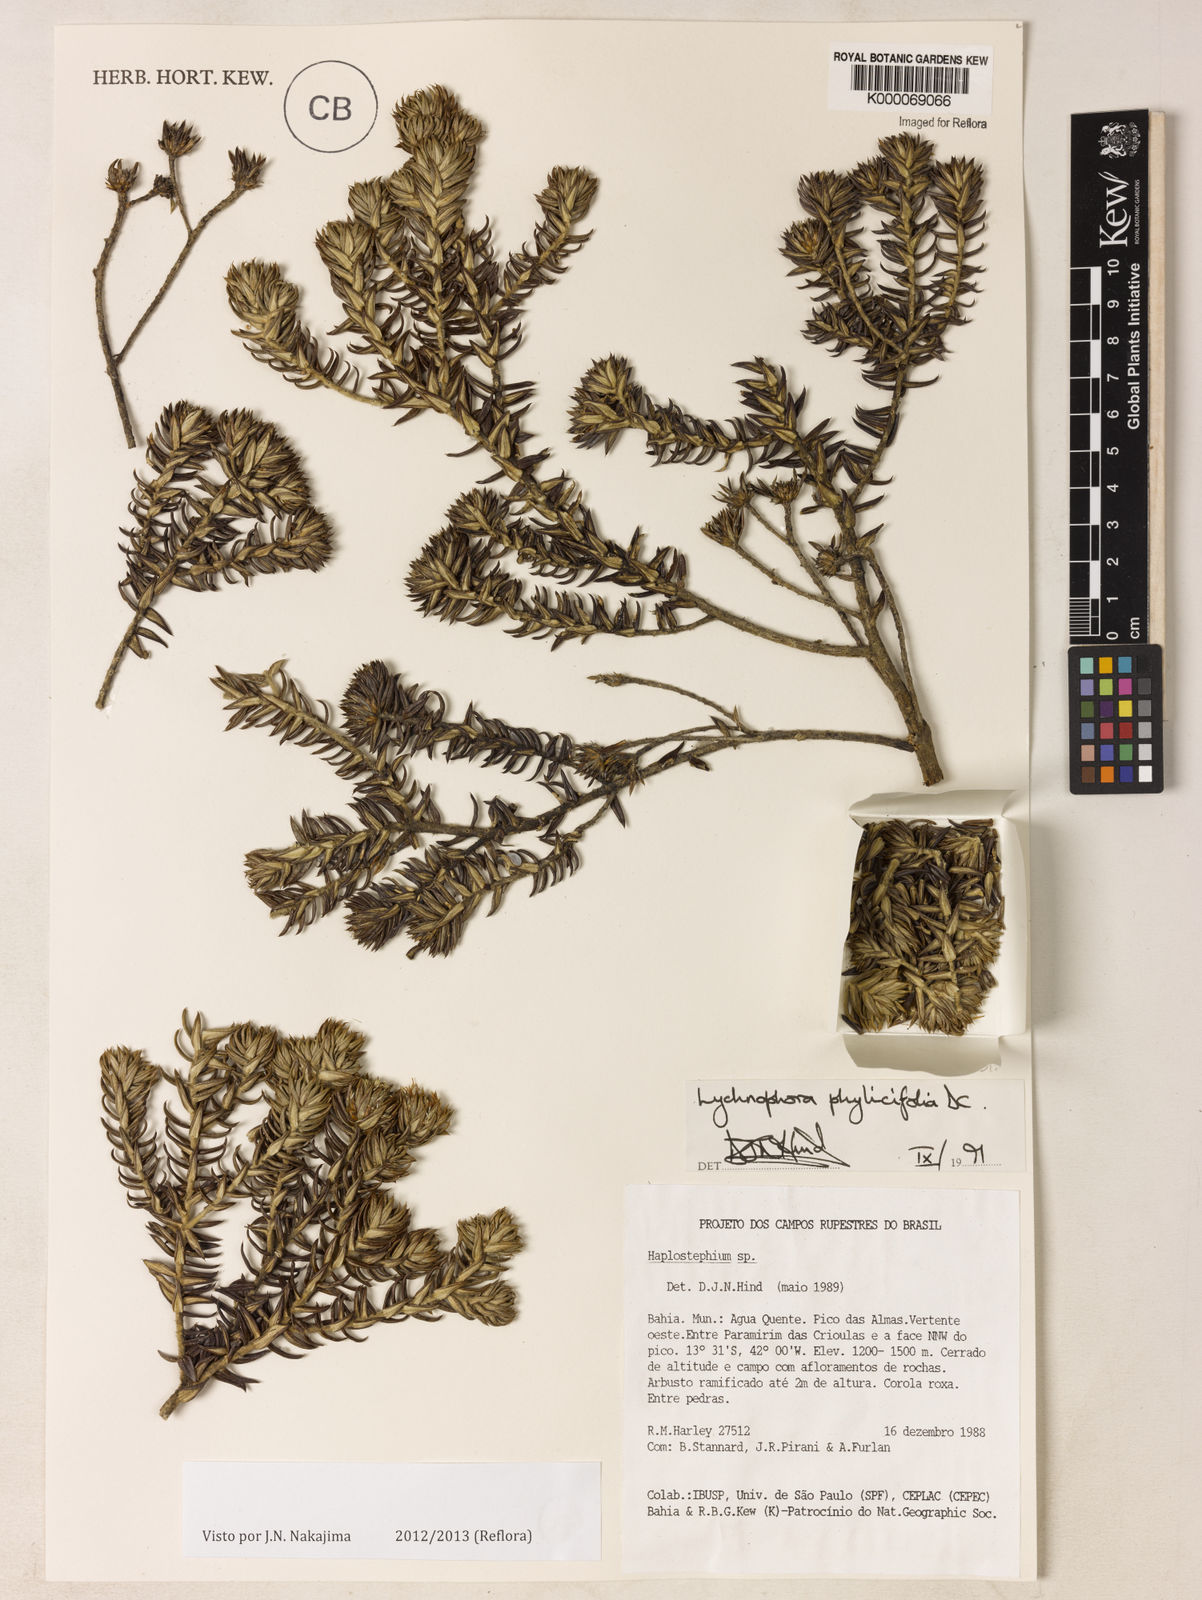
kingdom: Plantae
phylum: Tracheophyta
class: Magnoliopsida
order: Asterales
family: Asteraceae
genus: Lychnophora
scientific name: Lychnophora phylicifolia
